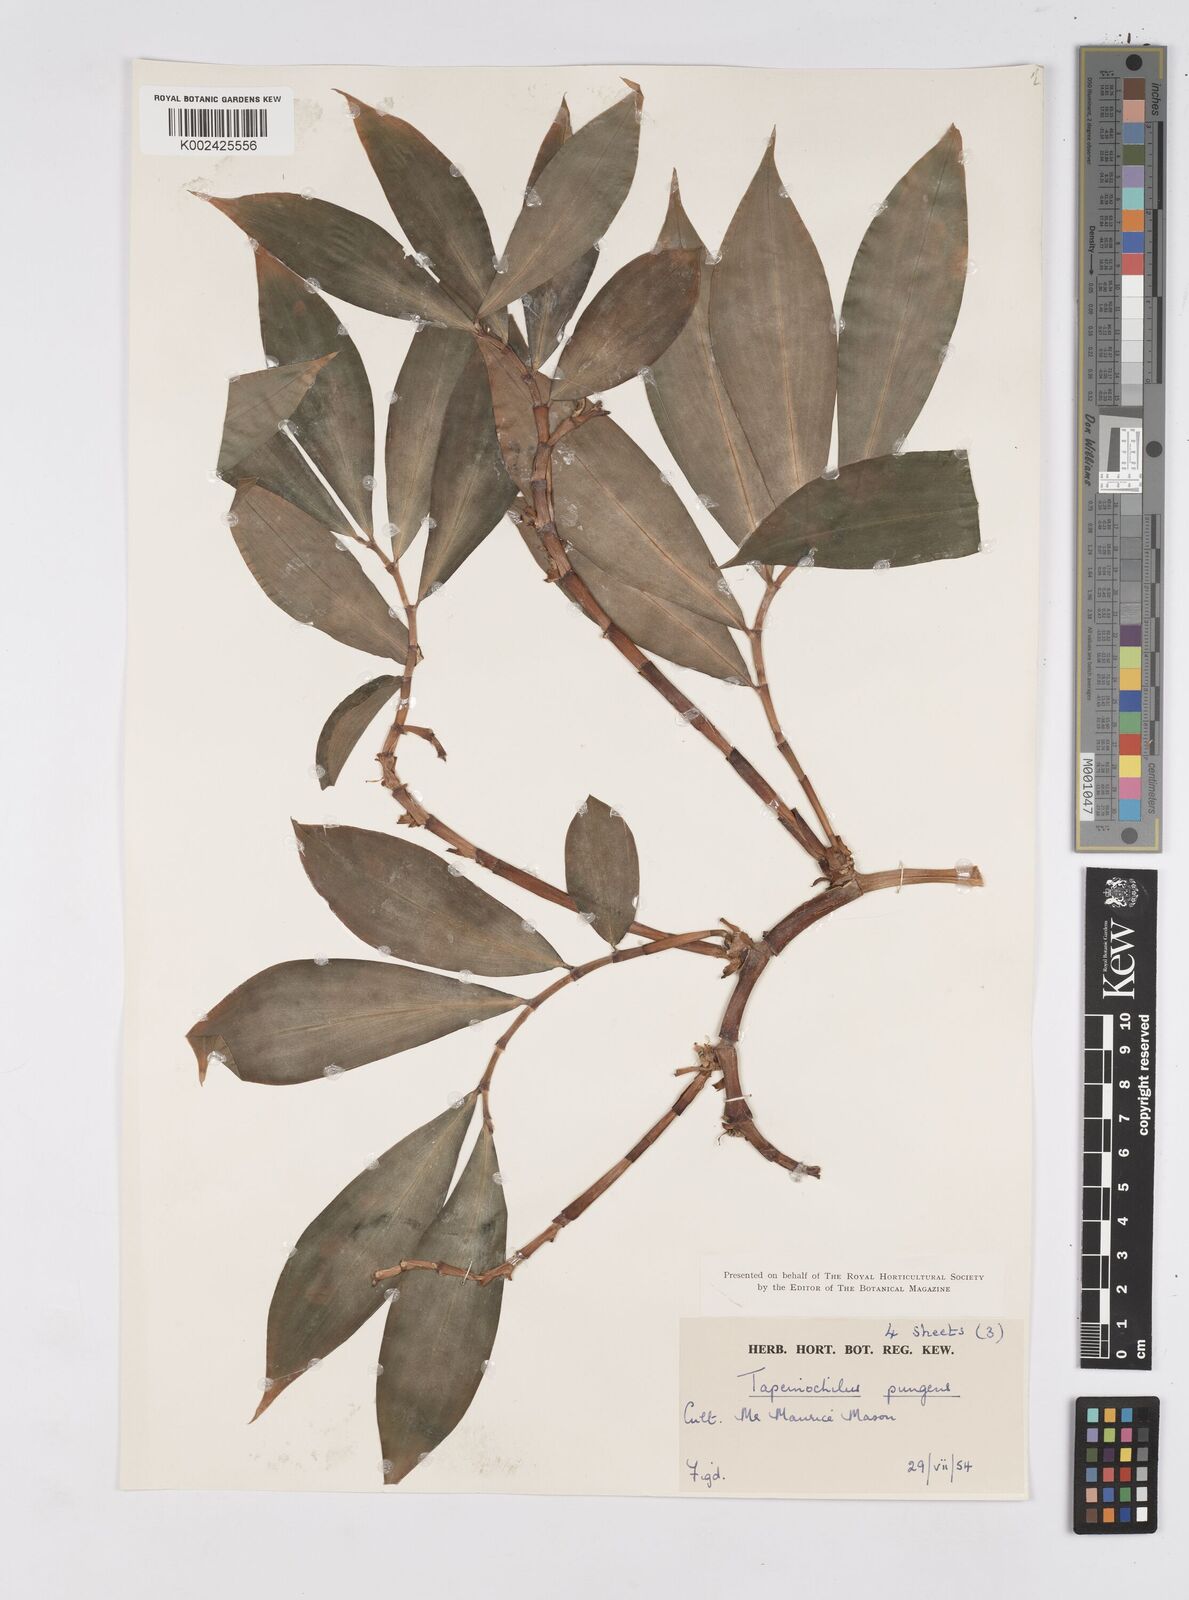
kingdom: Plantae
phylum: Tracheophyta
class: Liliopsida
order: Zingiberales
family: Costaceae
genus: Tapeinochilos
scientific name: Tapeinochilos ananassae
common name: Torch-ginger
